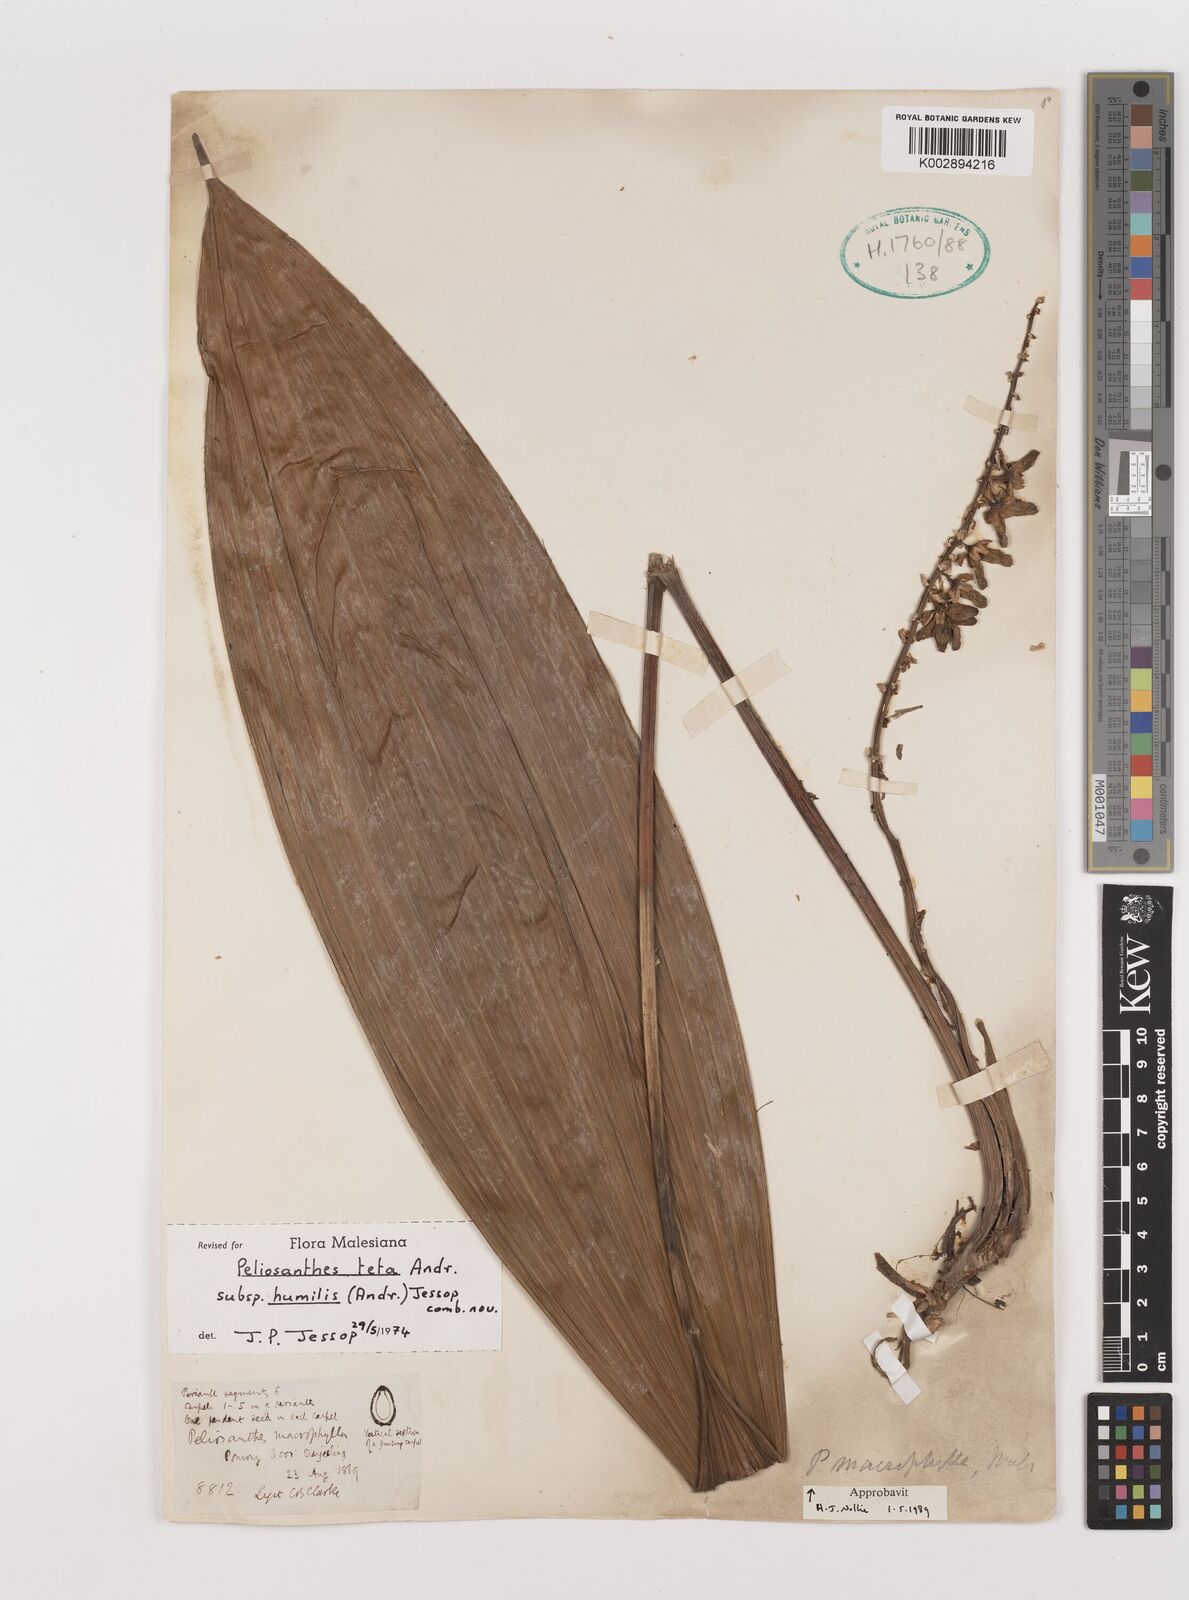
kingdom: Plantae
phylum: Tracheophyta
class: Liliopsida
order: Asparagales
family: Asparagaceae
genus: Peliosanthes
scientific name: Peliosanthes teta
